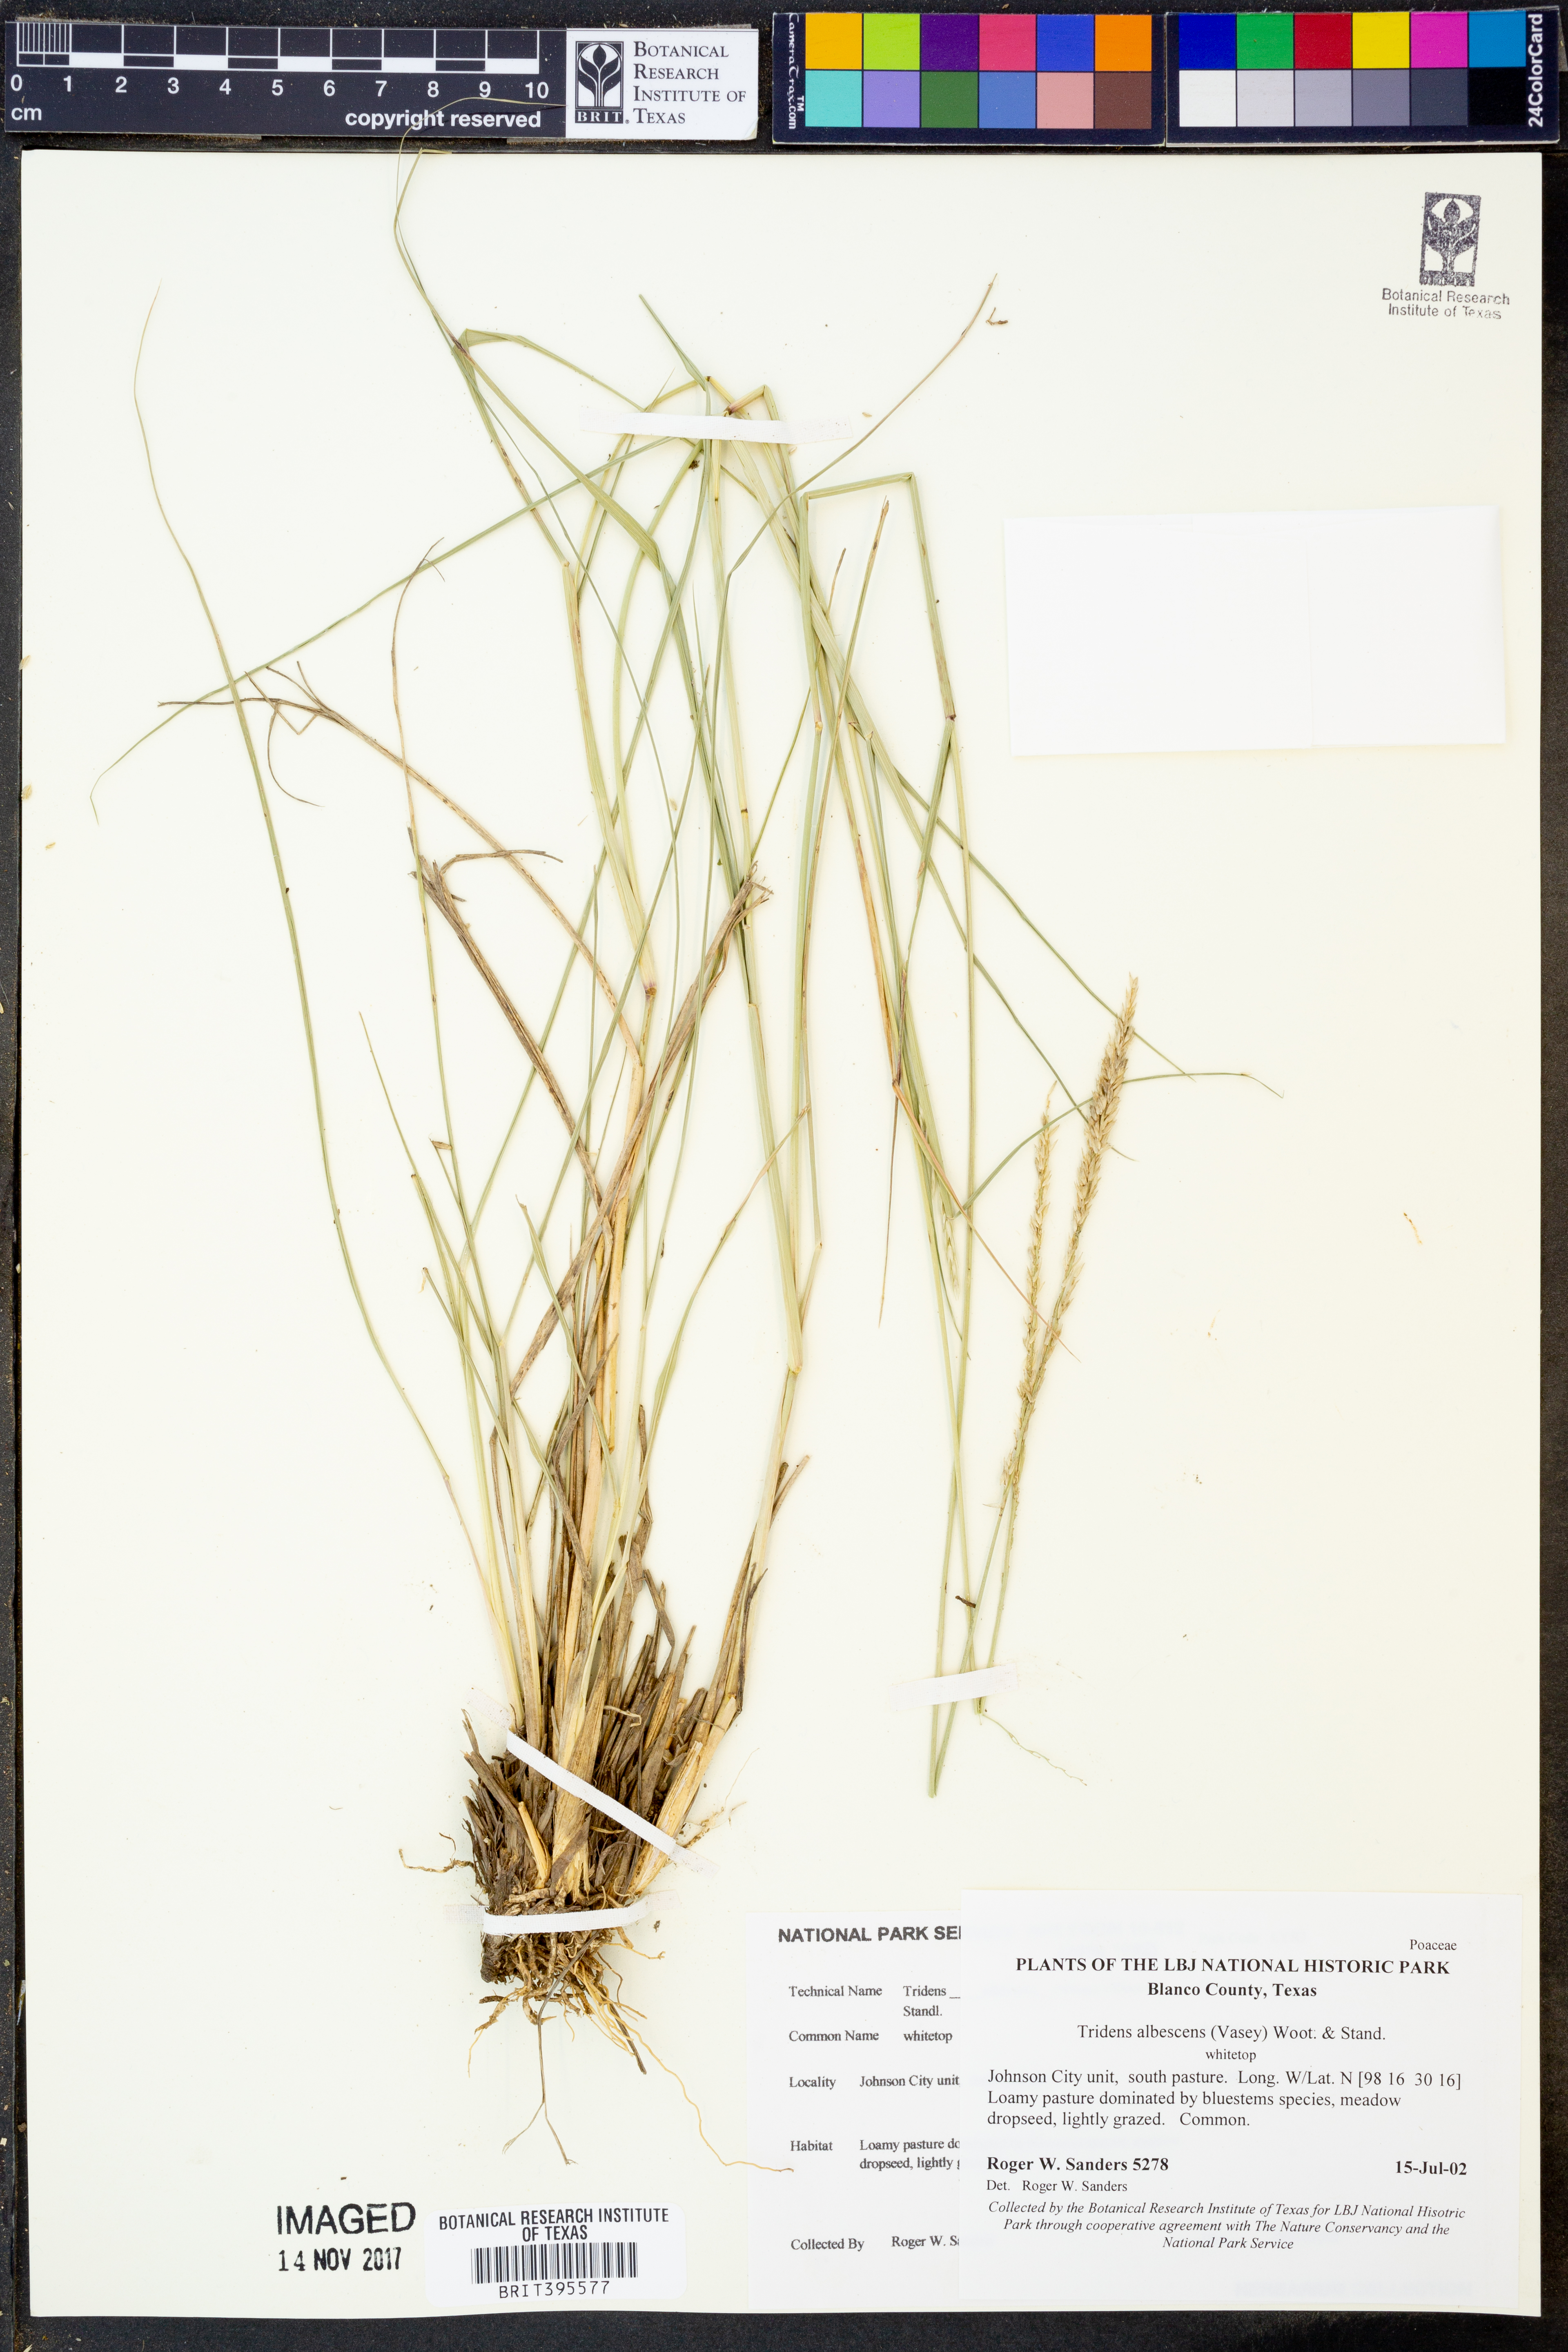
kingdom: Plantae
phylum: Tracheophyta
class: Liliopsida
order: Poales
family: Poaceae
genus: Tridens
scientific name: Tridens albescens
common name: White tridens
